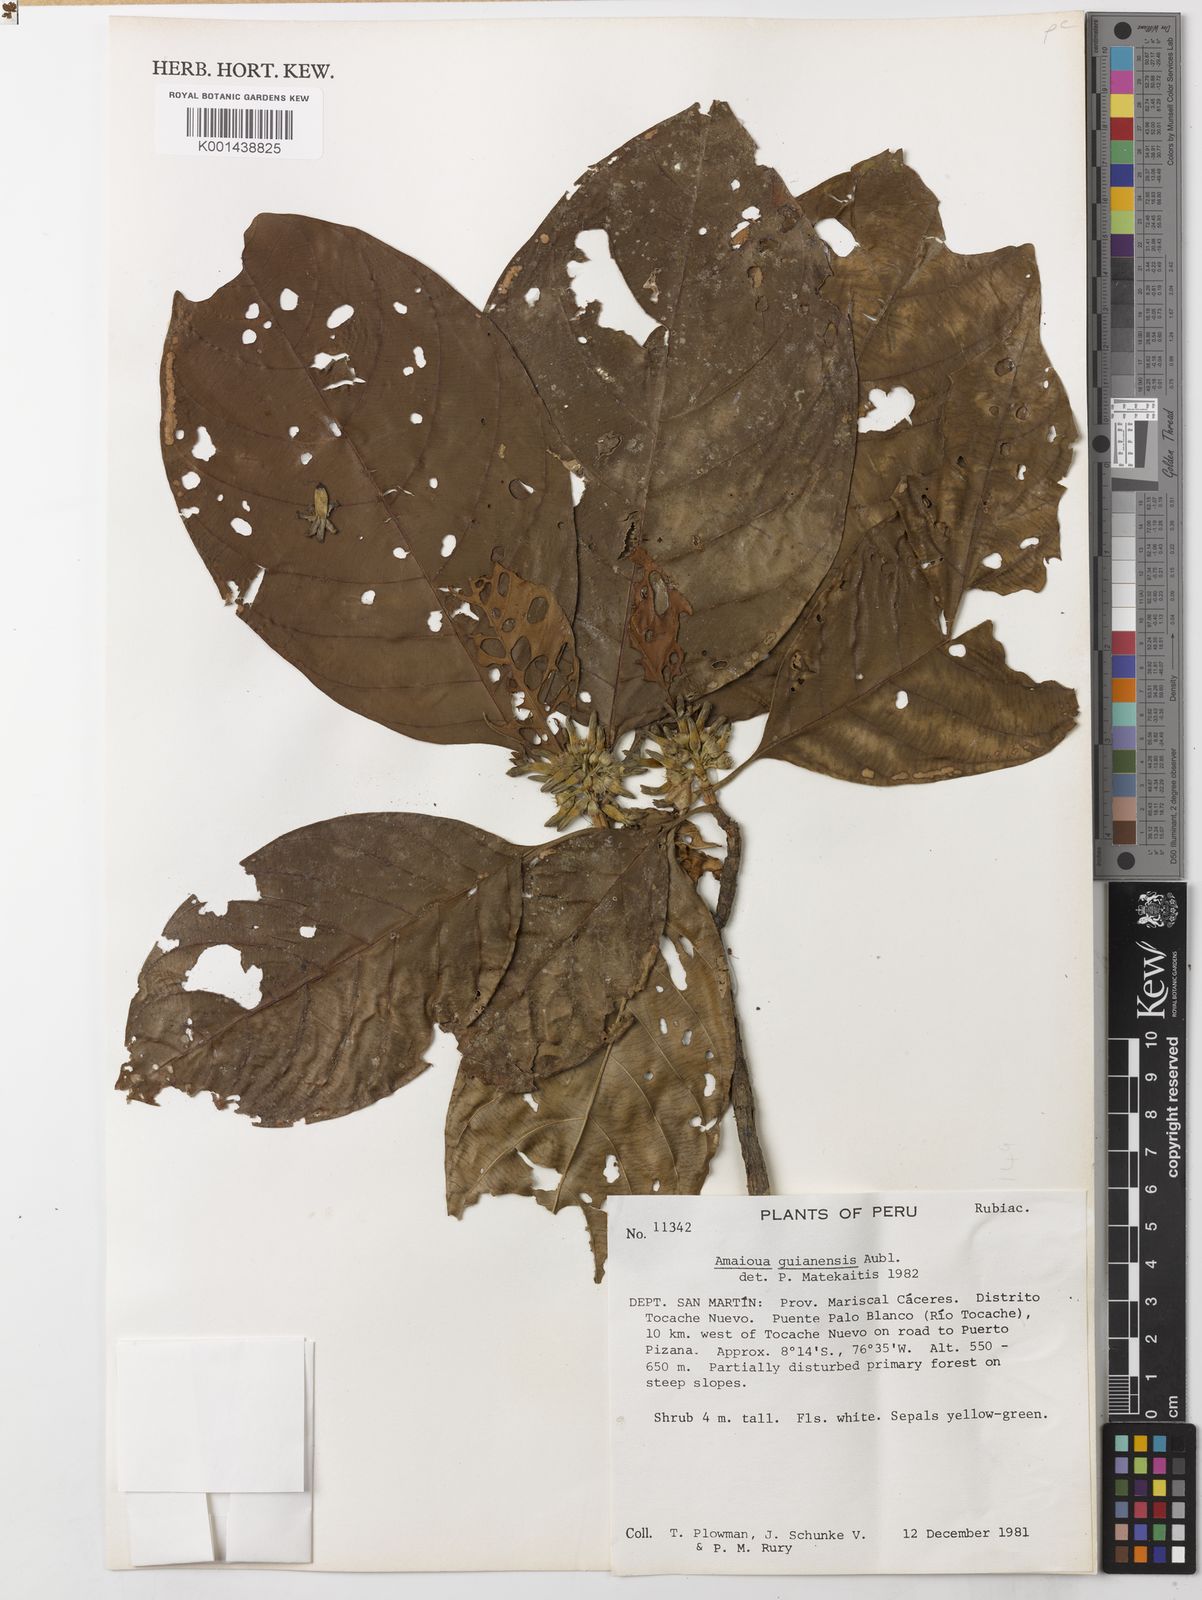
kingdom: Plantae
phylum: Tracheophyta
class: Magnoliopsida
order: Gentianales
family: Rubiaceae
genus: Amaioua
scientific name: Amaioua guianensis
